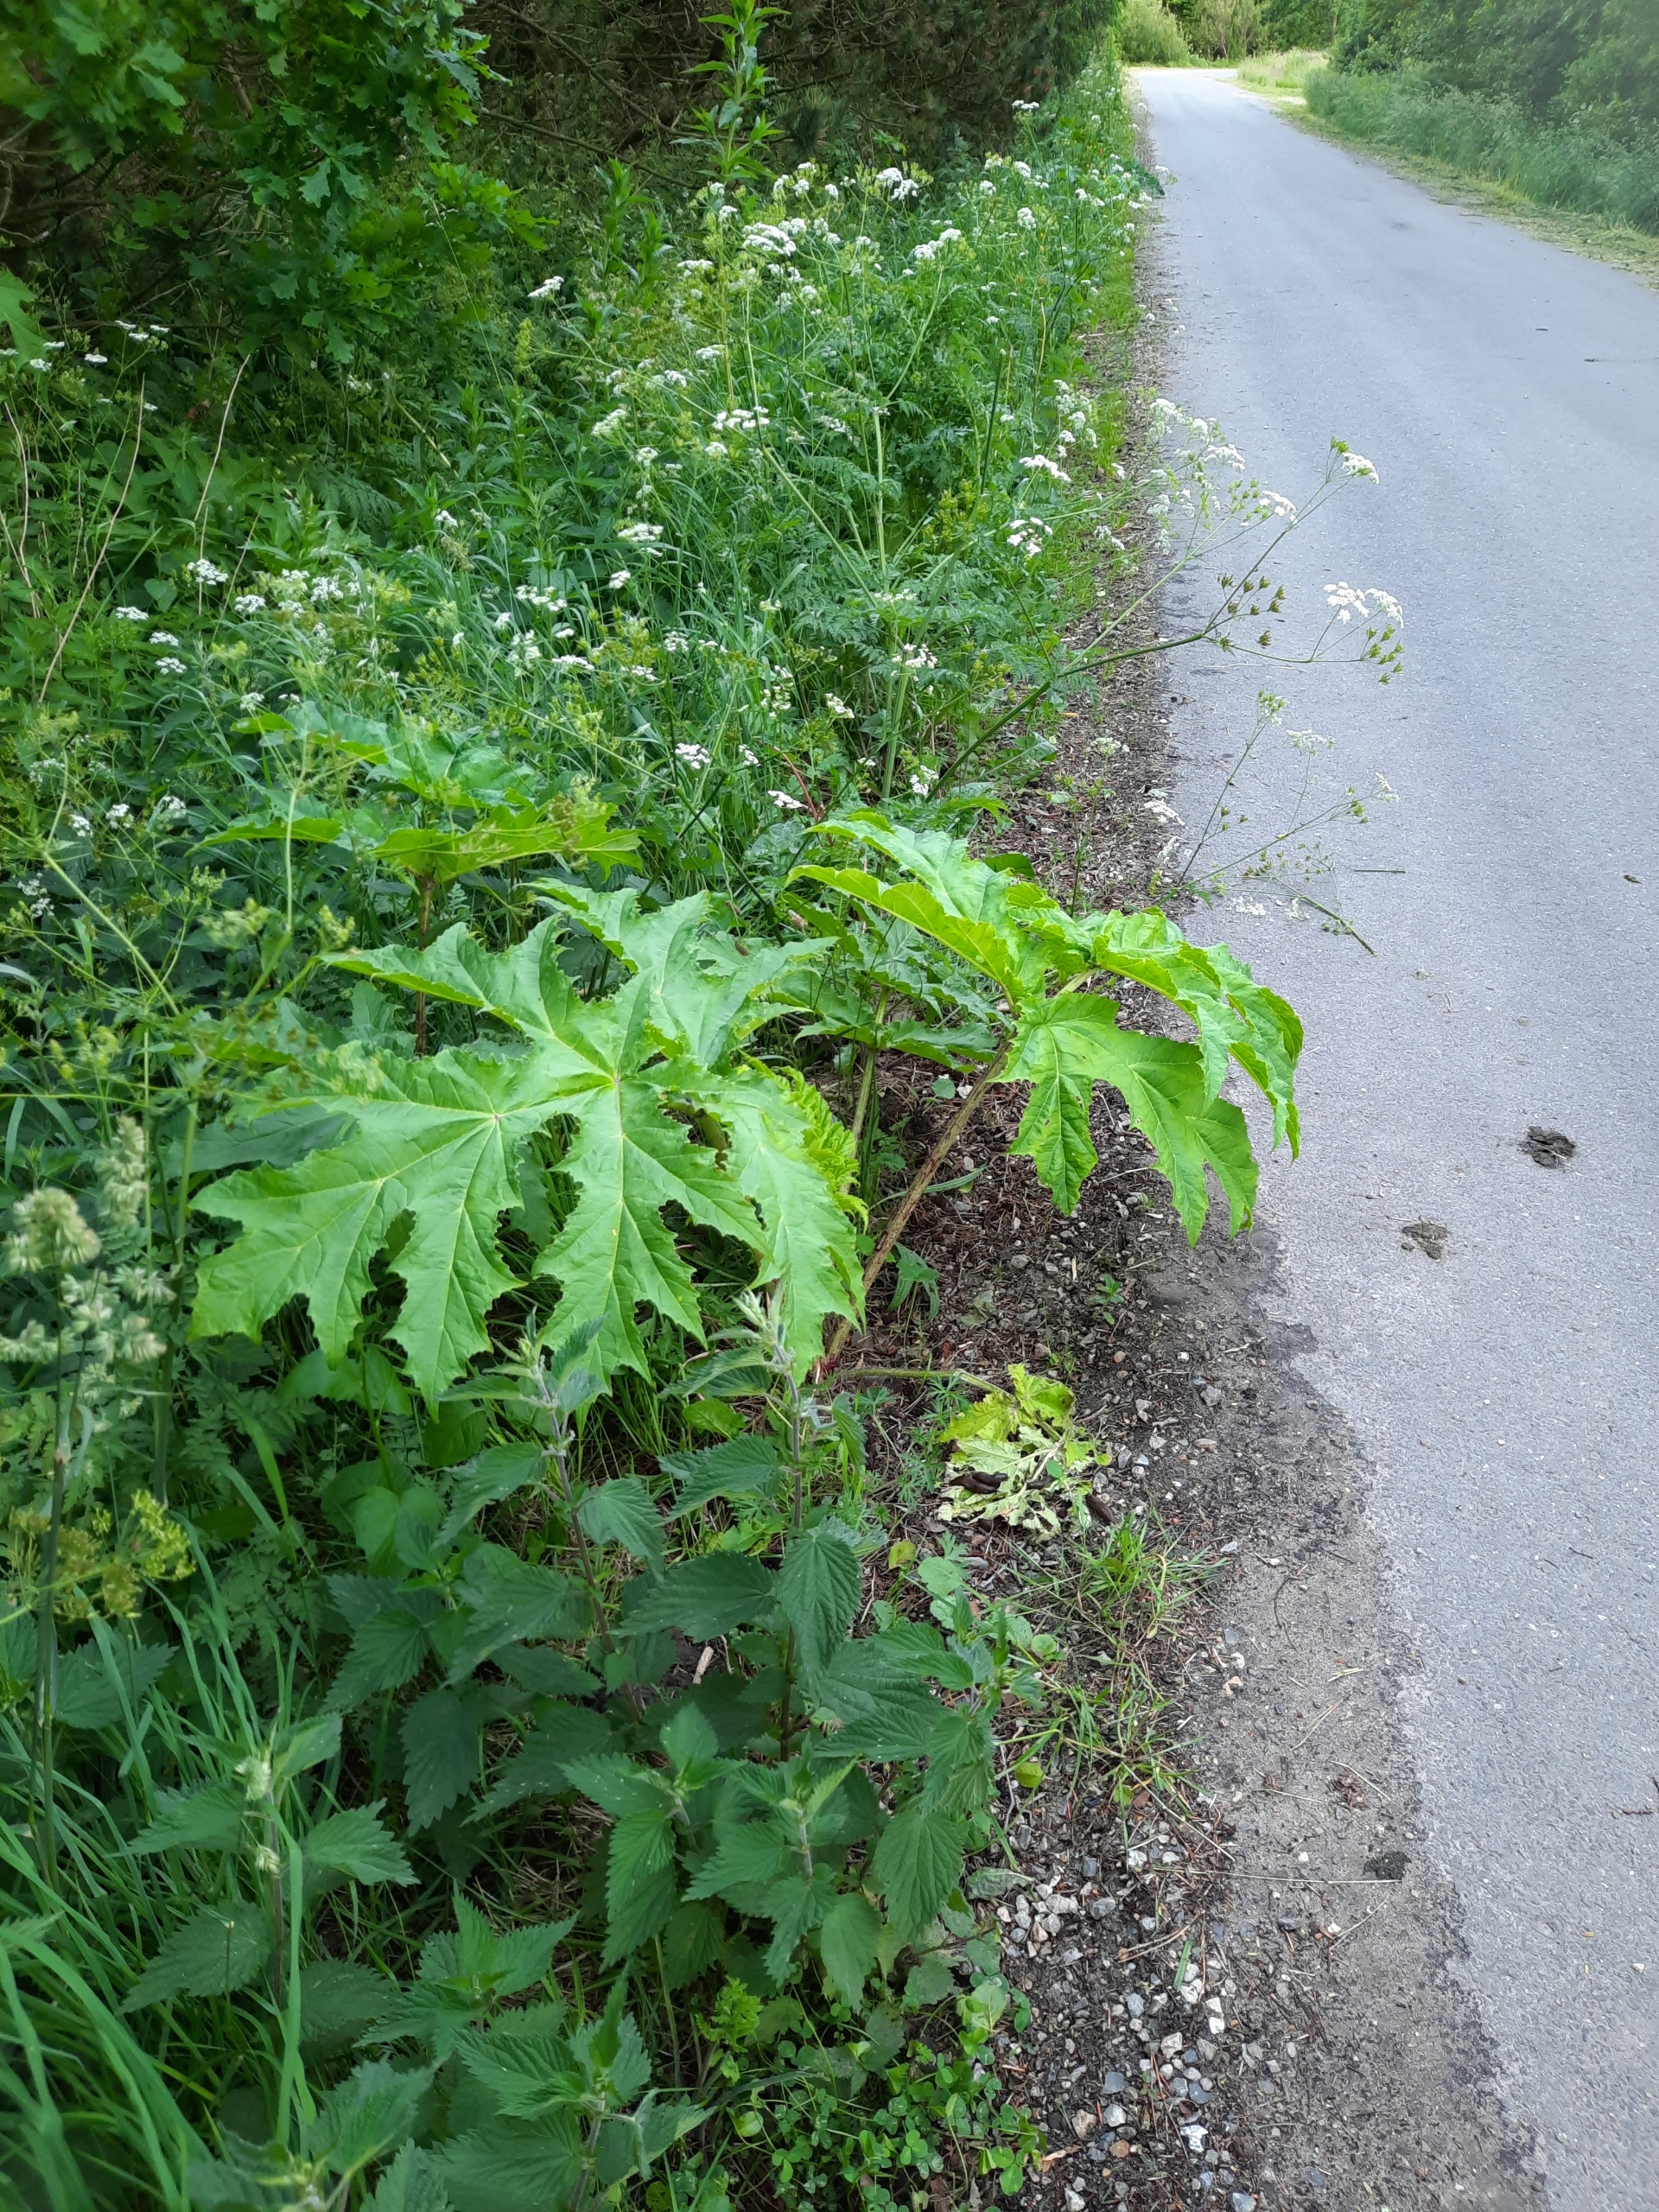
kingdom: Plantae
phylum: Tracheophyta
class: Magnoliopsida
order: Apiales
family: Apiaceae
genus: Heracleum
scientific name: Heracleum mantegazzianum
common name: Kæmpe-bjørneklo
